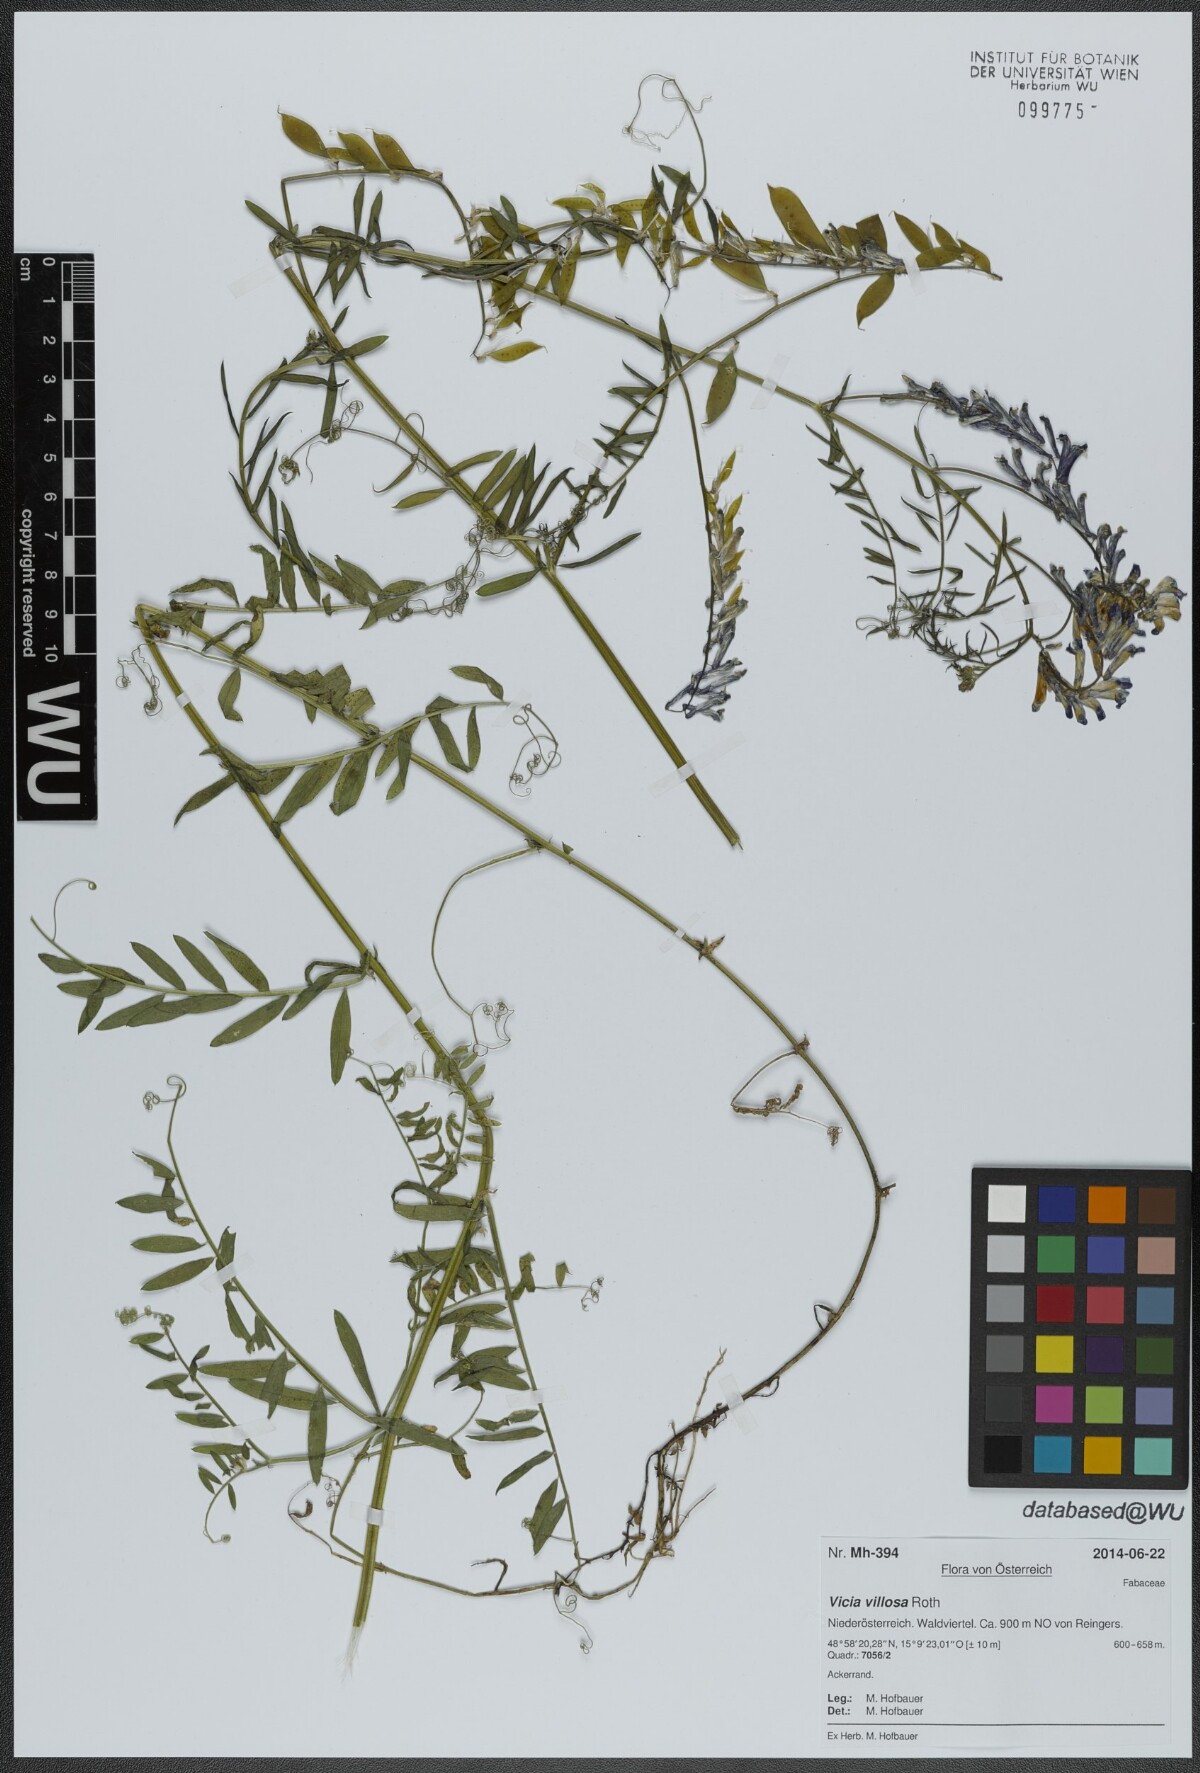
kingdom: Plantae
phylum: Tracheophyta
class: Magnoliopsida
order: Fabales
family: Fabaceae
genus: Vicia
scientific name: Vicia villosa
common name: Fodder vetch
